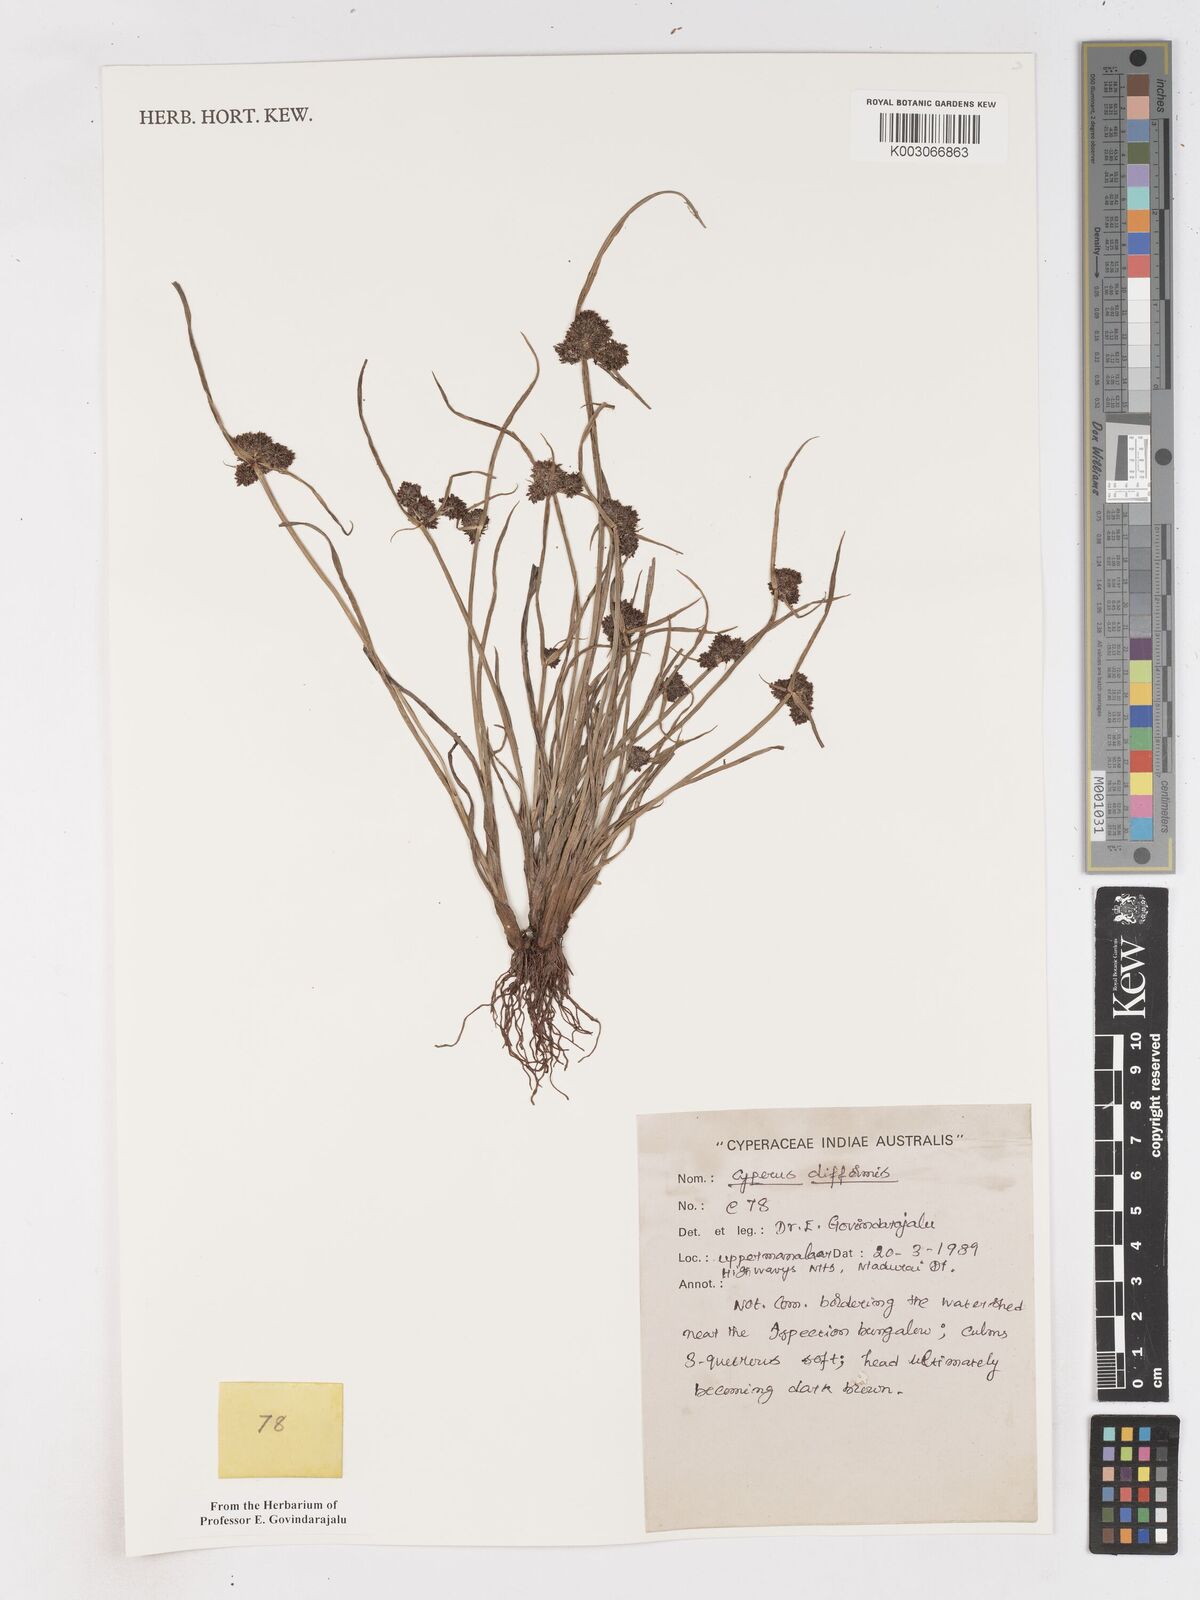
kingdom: Plantae
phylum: Tracheophyta
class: Liliopsida
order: Poales
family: Cyperaceae
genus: Cyperus
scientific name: Cyperus difformis
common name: Variable flatsedge
